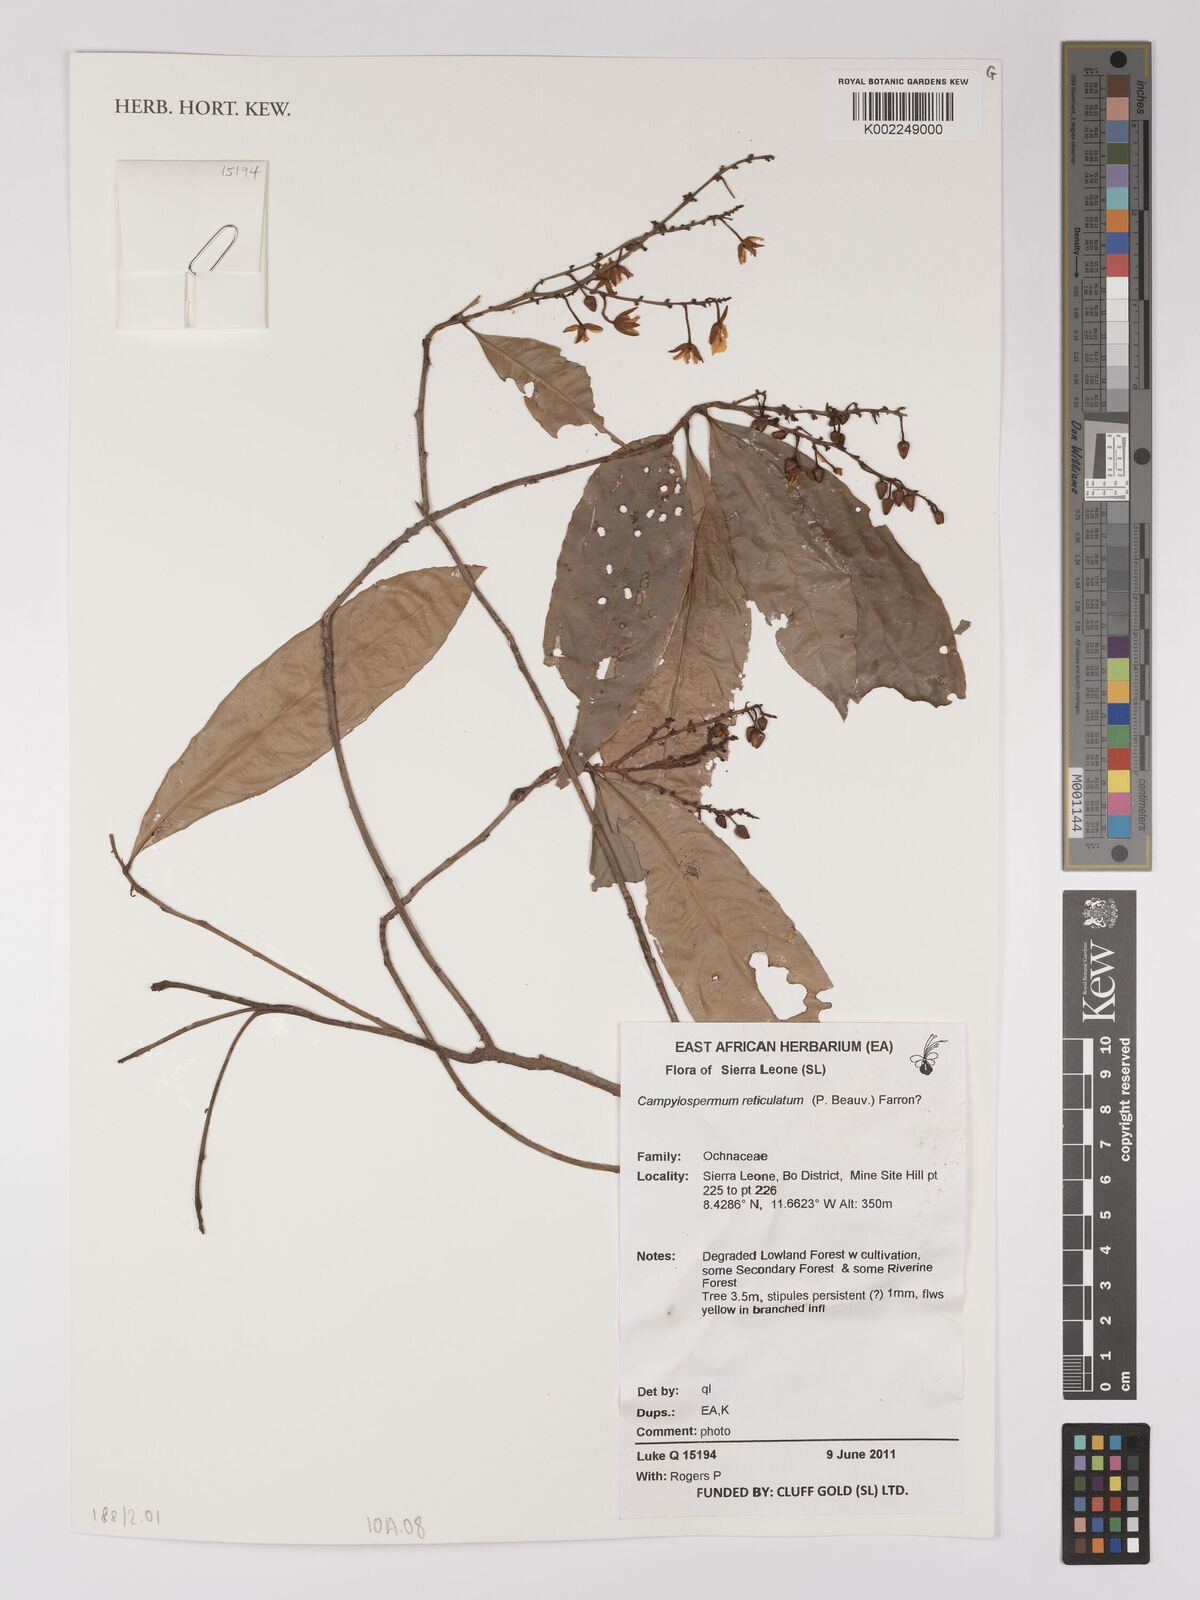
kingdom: Plantae
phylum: Tracheophyta
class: Magnoliopsida
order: Malpighiales
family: Ochnaceae
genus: Campylospermum
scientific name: Campylospermum reticulatum
